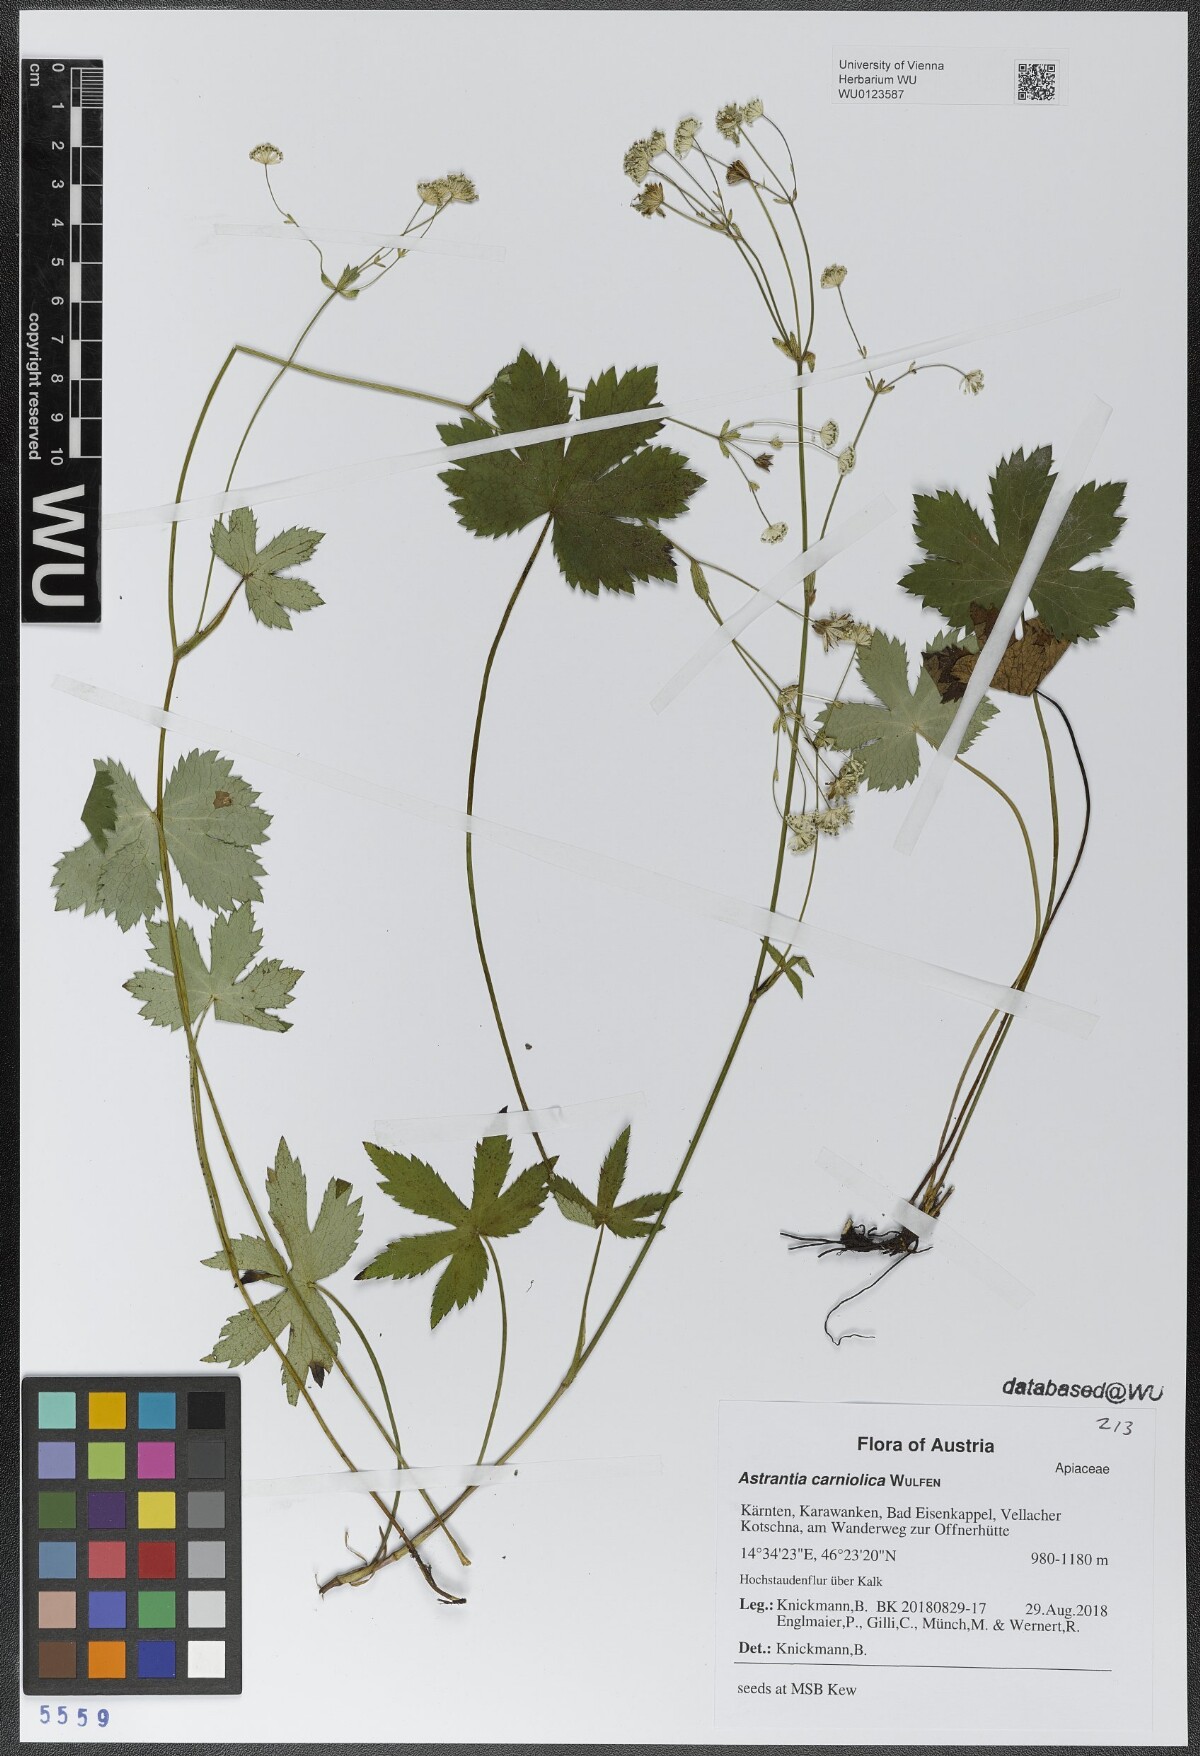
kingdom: Plantae
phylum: Tracheophyta
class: Magnoliopsida
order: Apiales
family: Apiaceae
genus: Astrantia
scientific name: Astrantia carniolica
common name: Carnic masterwort
